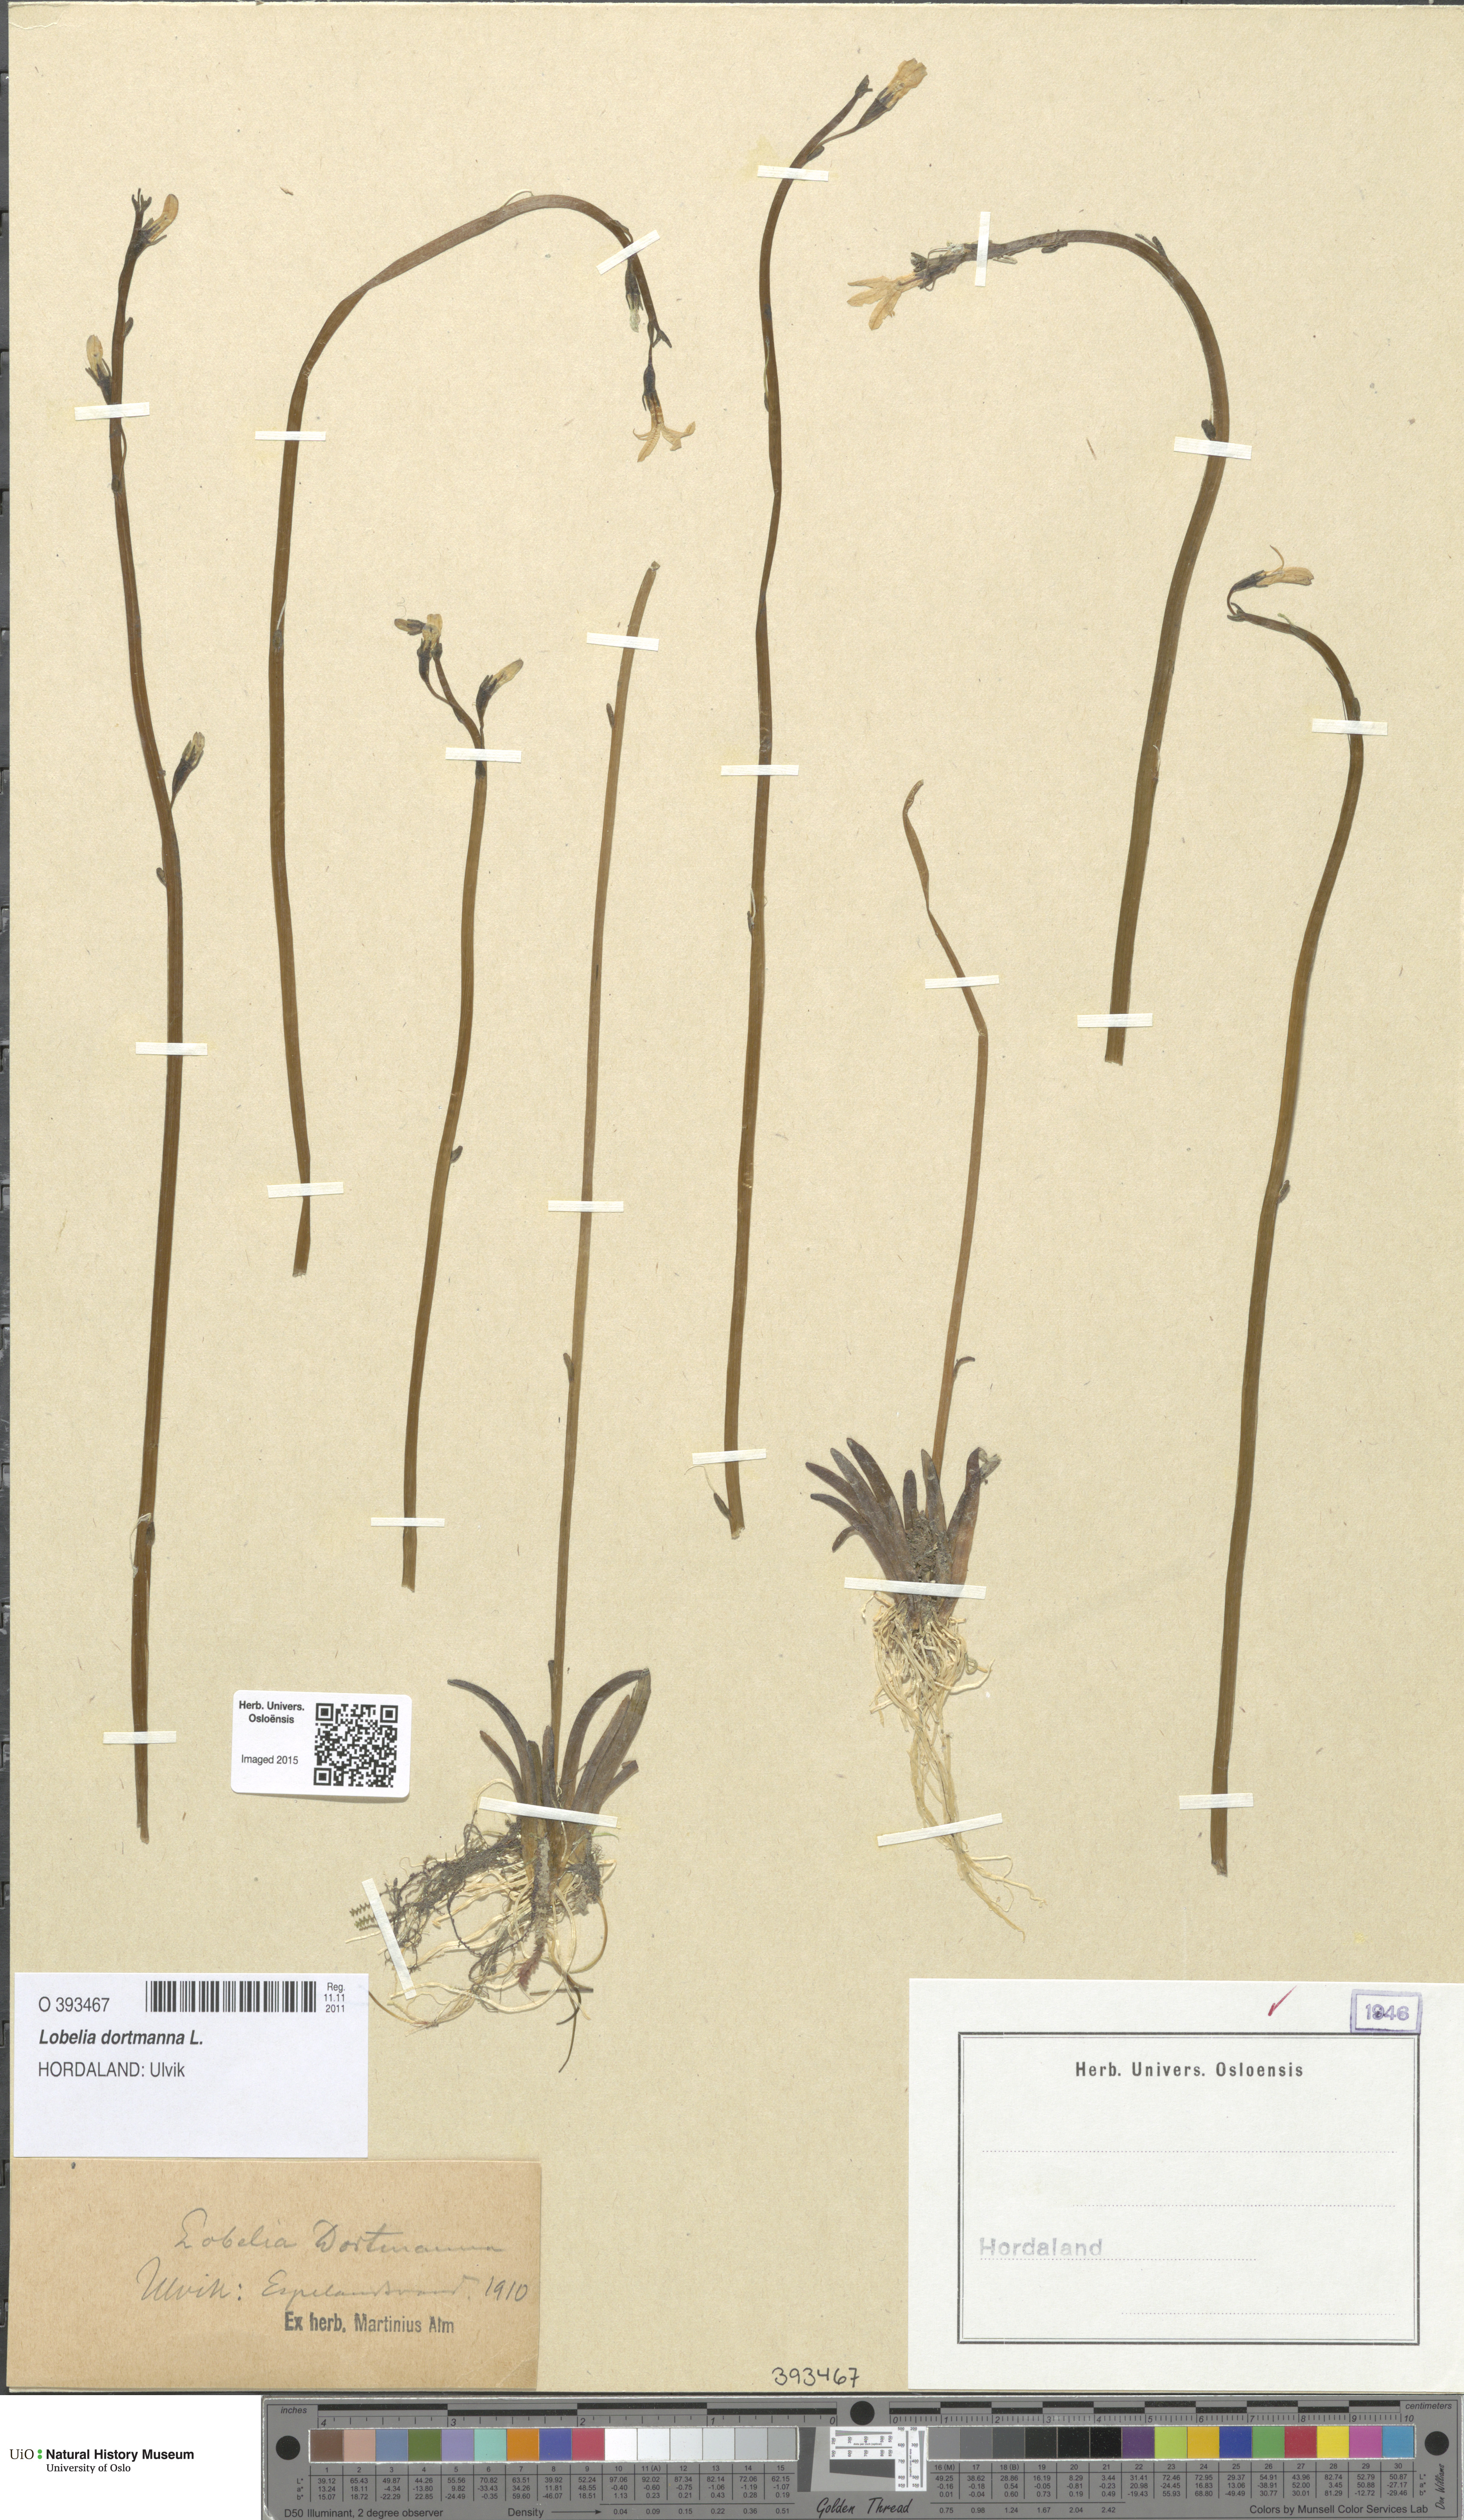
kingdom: Plantae
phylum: Tracheophyta
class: Magnoliopsida
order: Asterales
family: Campanulaceae
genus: Lobelia
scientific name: Lobelia dortmanna
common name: Water lobelia
